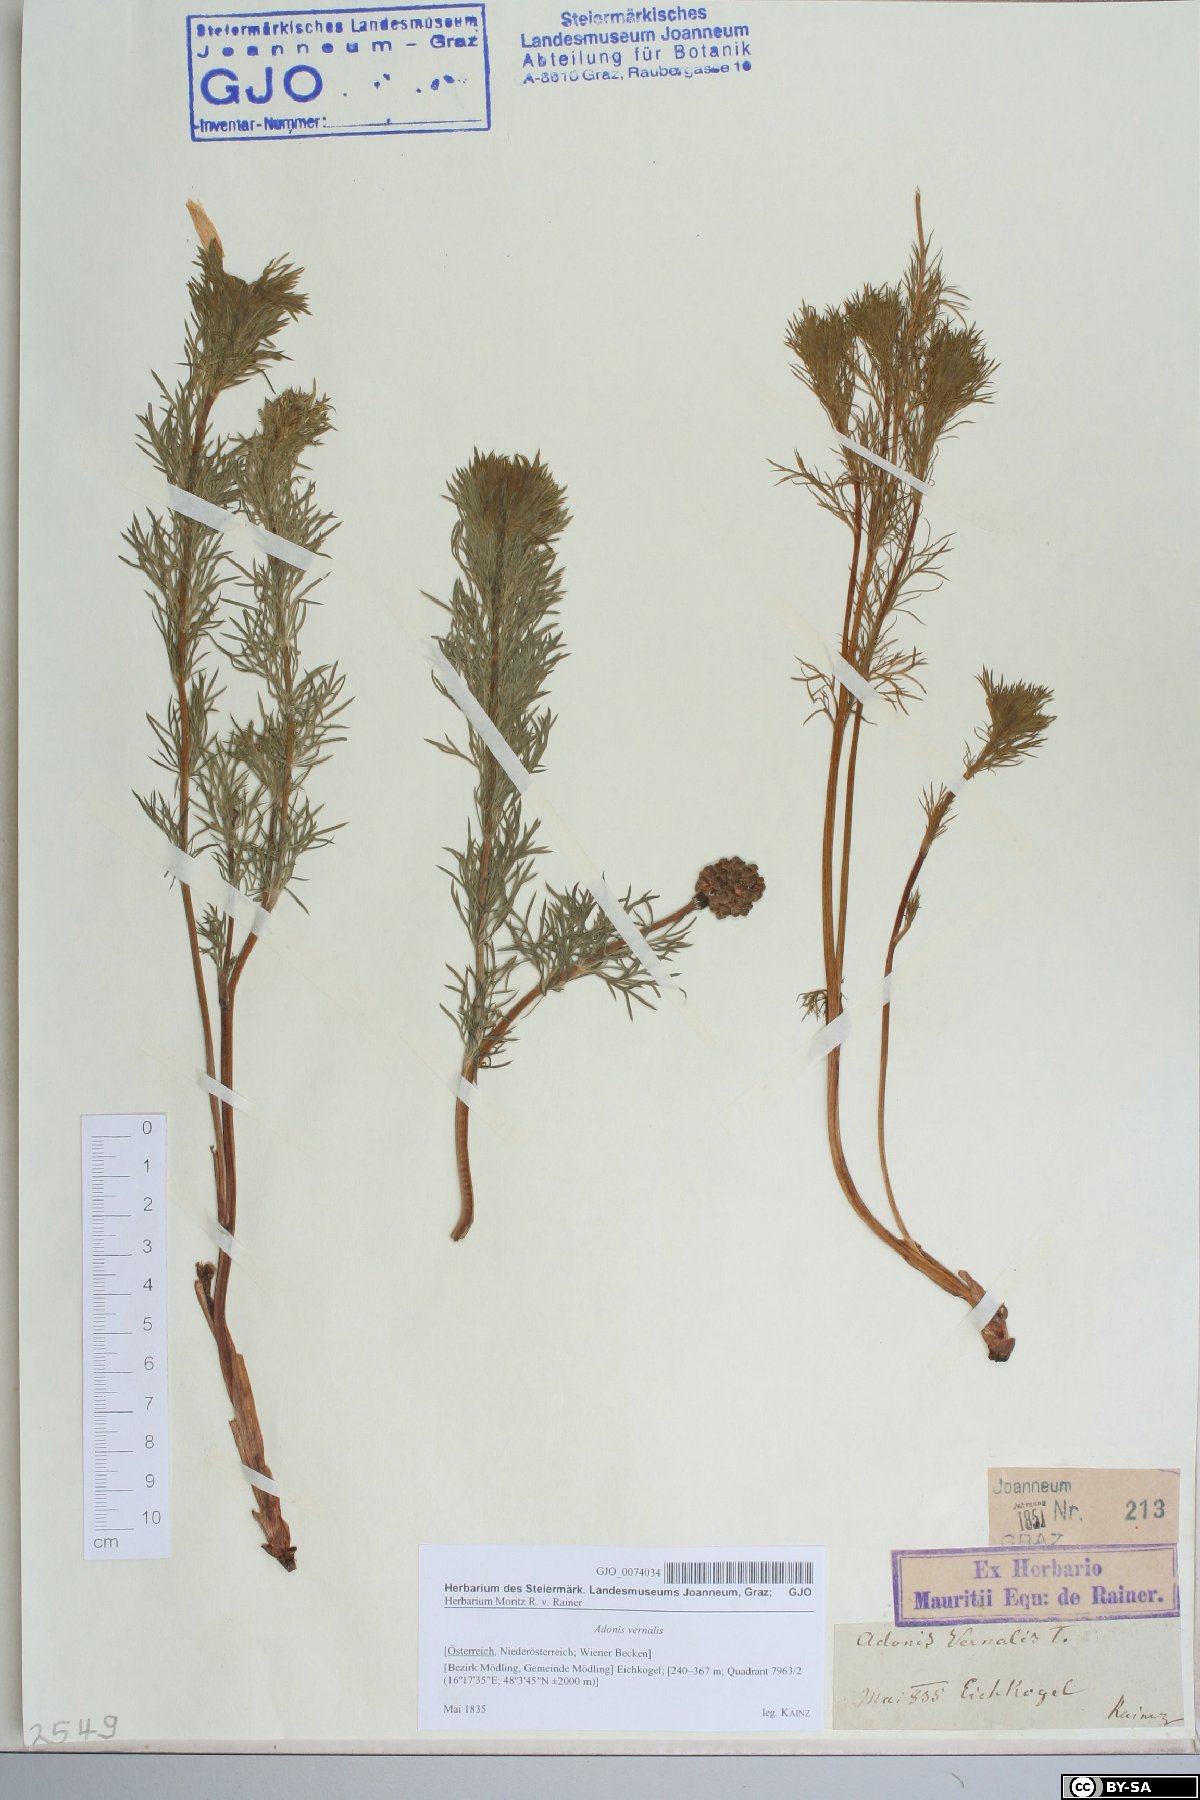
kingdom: Plantae
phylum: Tracheophyta
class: Magnoliopsida
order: Ranunculales
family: Ranunculaceae
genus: Adonis
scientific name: Adonis vernalis
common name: Yellow pheasants-eye
